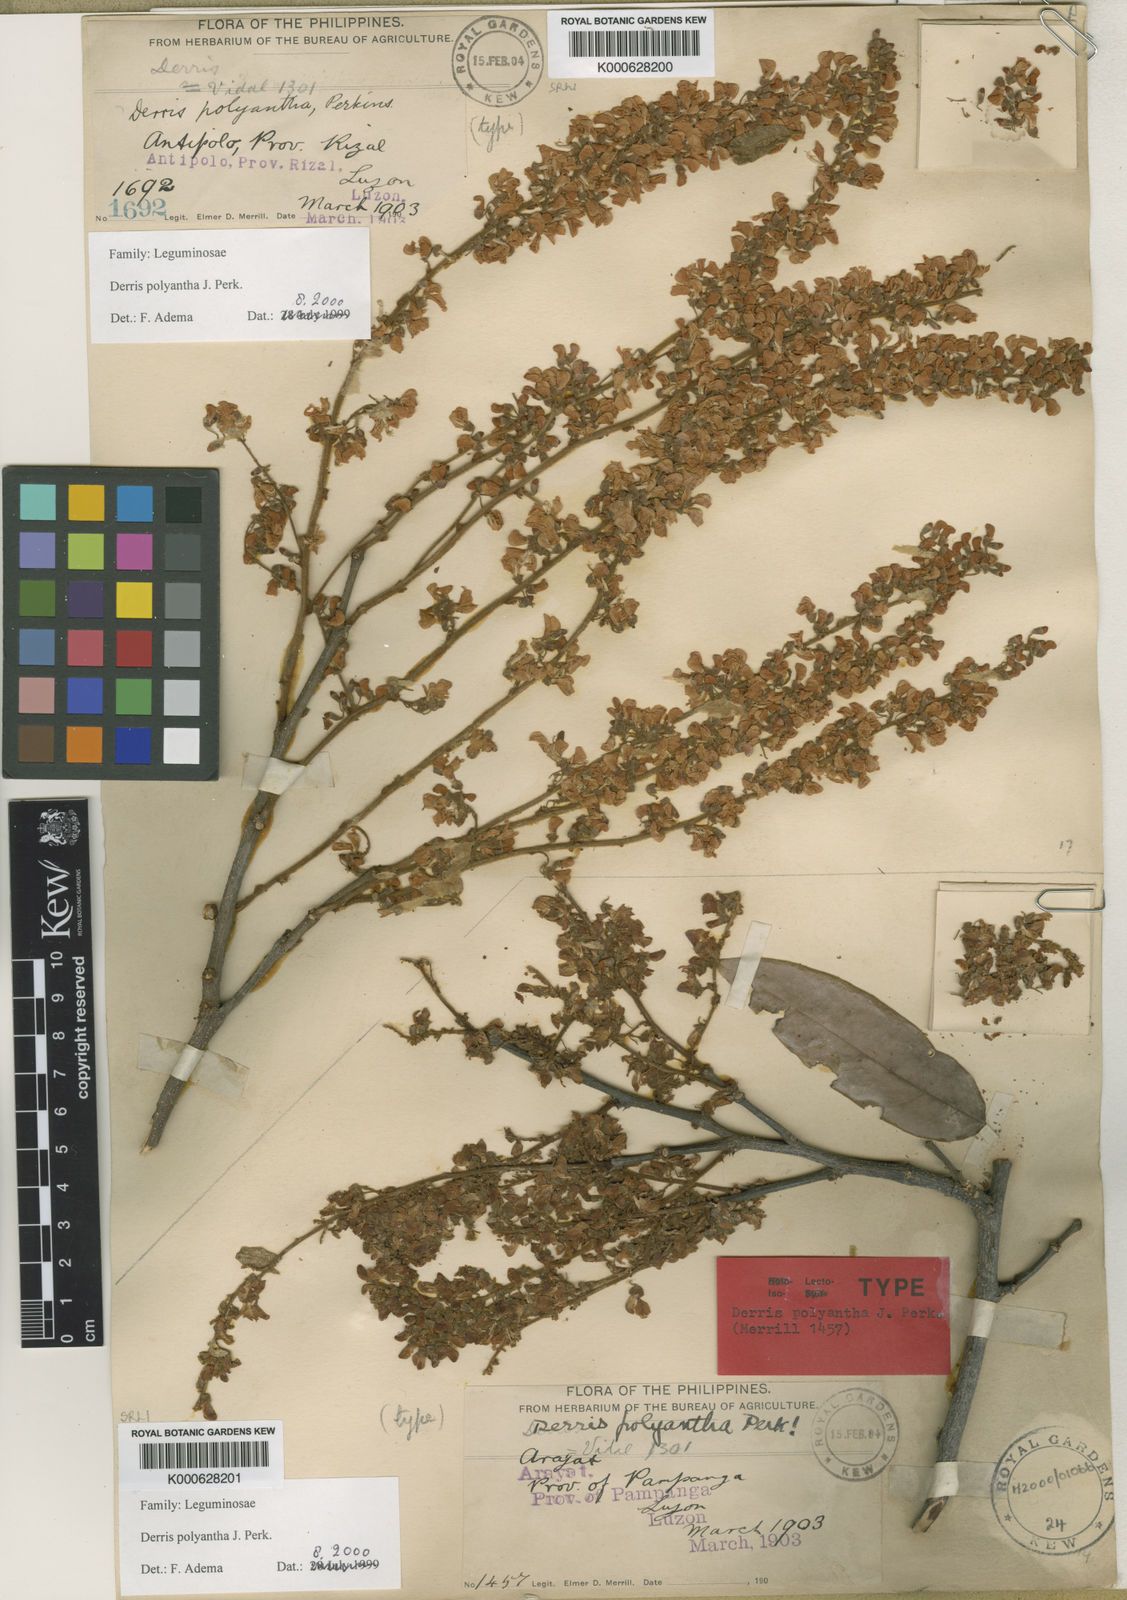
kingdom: Plantae
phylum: Tracheophyta
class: Magnoliopsida
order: Fabales
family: Fabaceae
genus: Derris
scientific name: Derris polyantha
